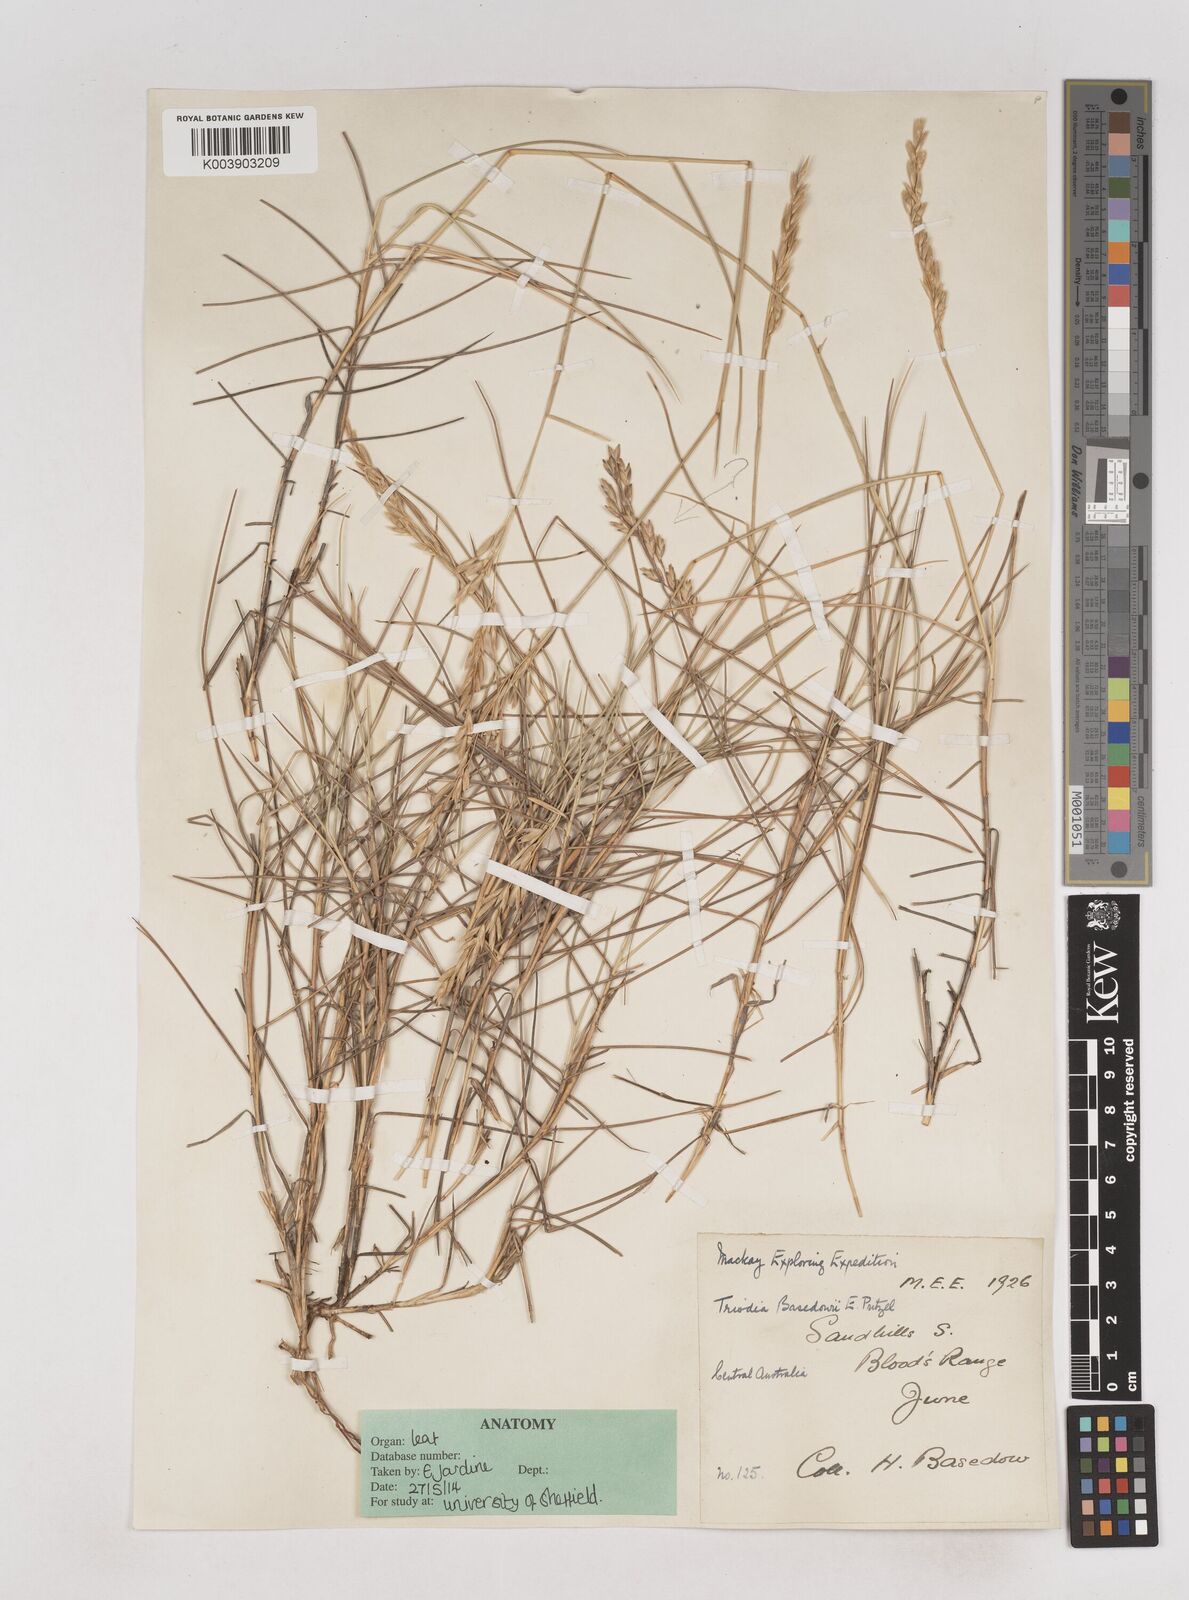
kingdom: Plantae
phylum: Tracheophyta
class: Liliopsida
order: Poales
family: Poaceae
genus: Triodia
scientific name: Triodia basedowii
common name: Hard spinifex
